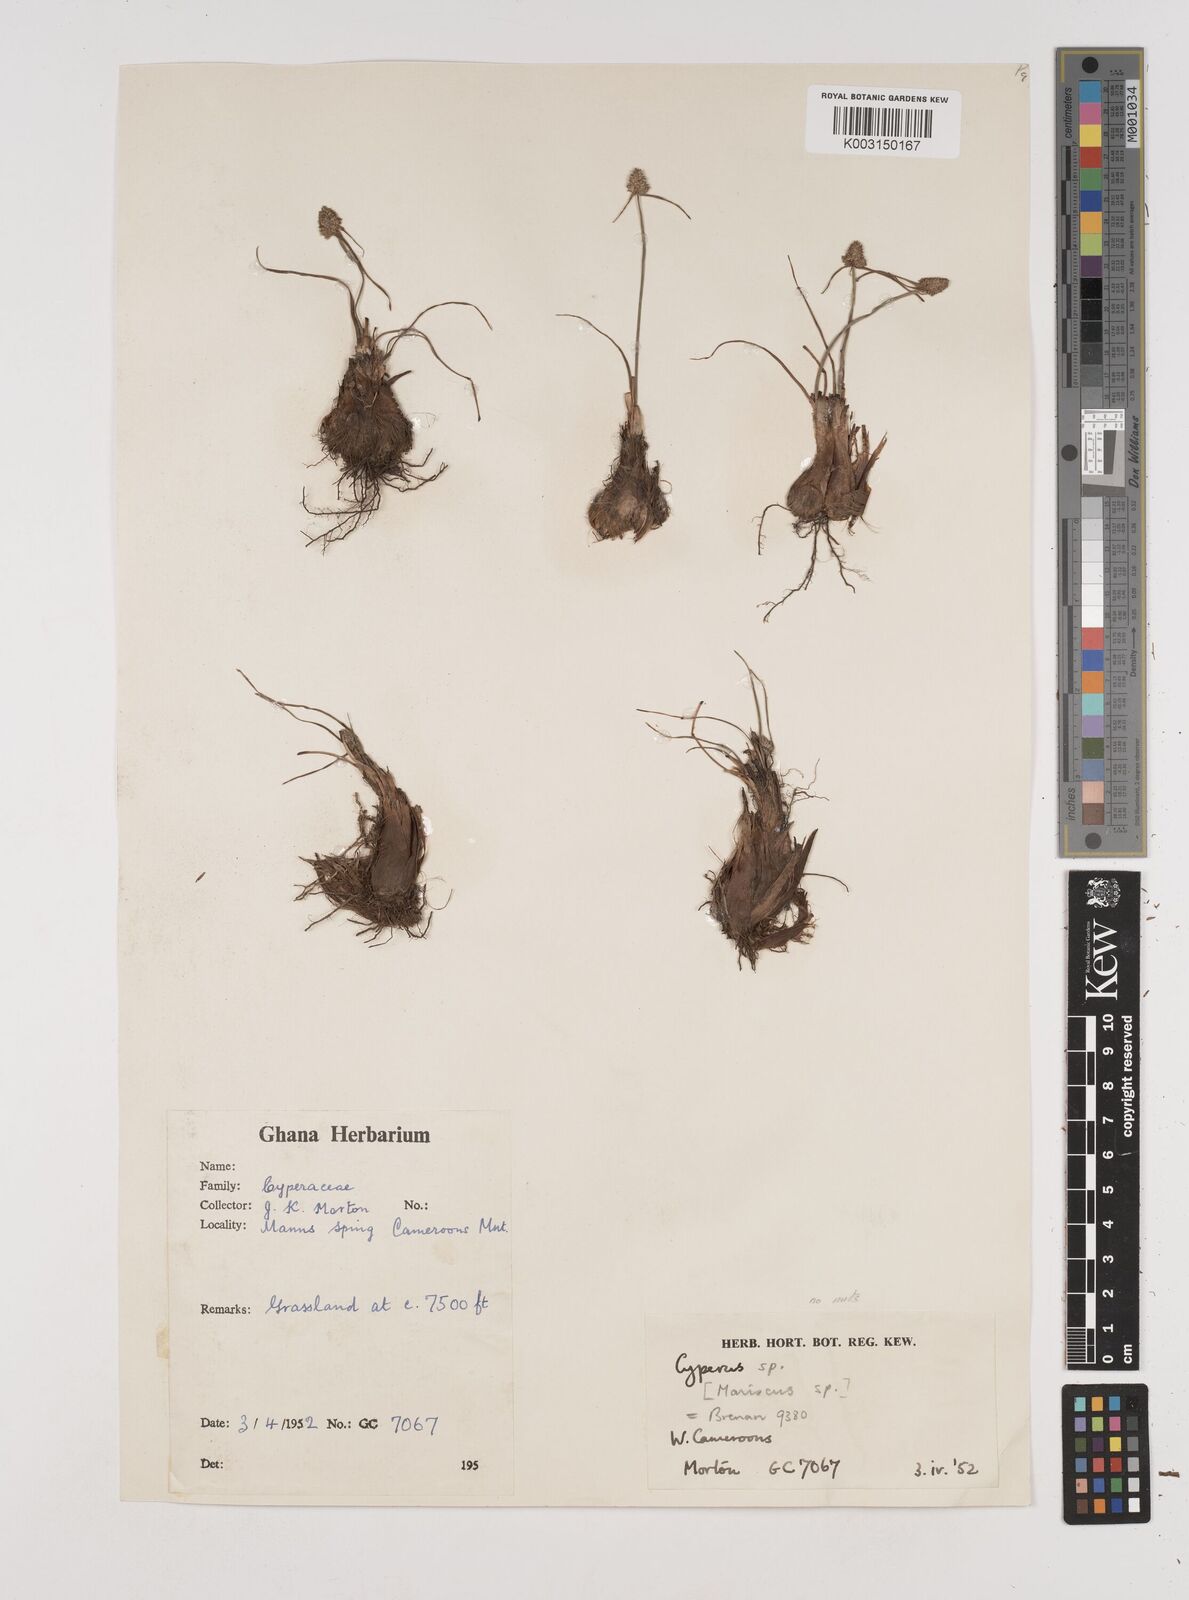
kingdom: Plantae
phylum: Tracheophyta
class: Liliopsida
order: Poales
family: Cyperaceae
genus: Cyperus
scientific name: Cyperus
